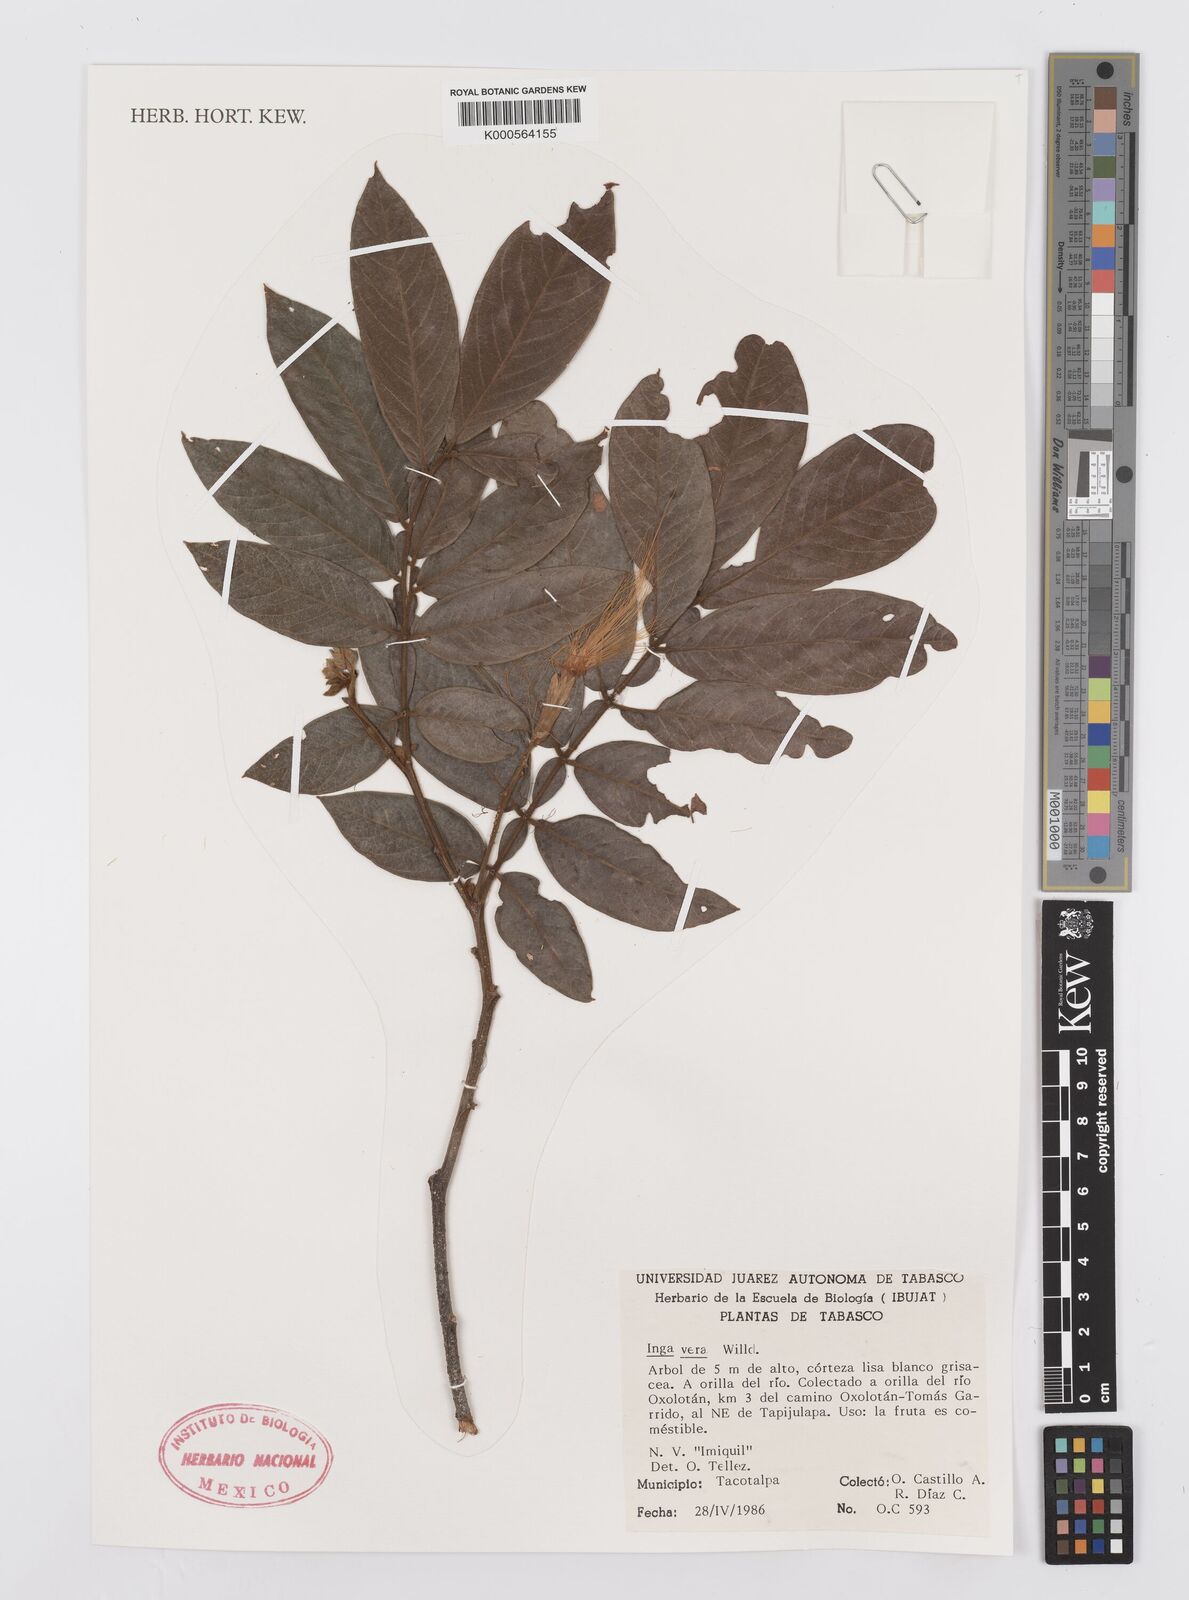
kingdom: Plantae
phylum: Tracheophyta
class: Magnoliopsida
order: Fabales
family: Fabaceae
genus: Inga
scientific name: Inga vera
